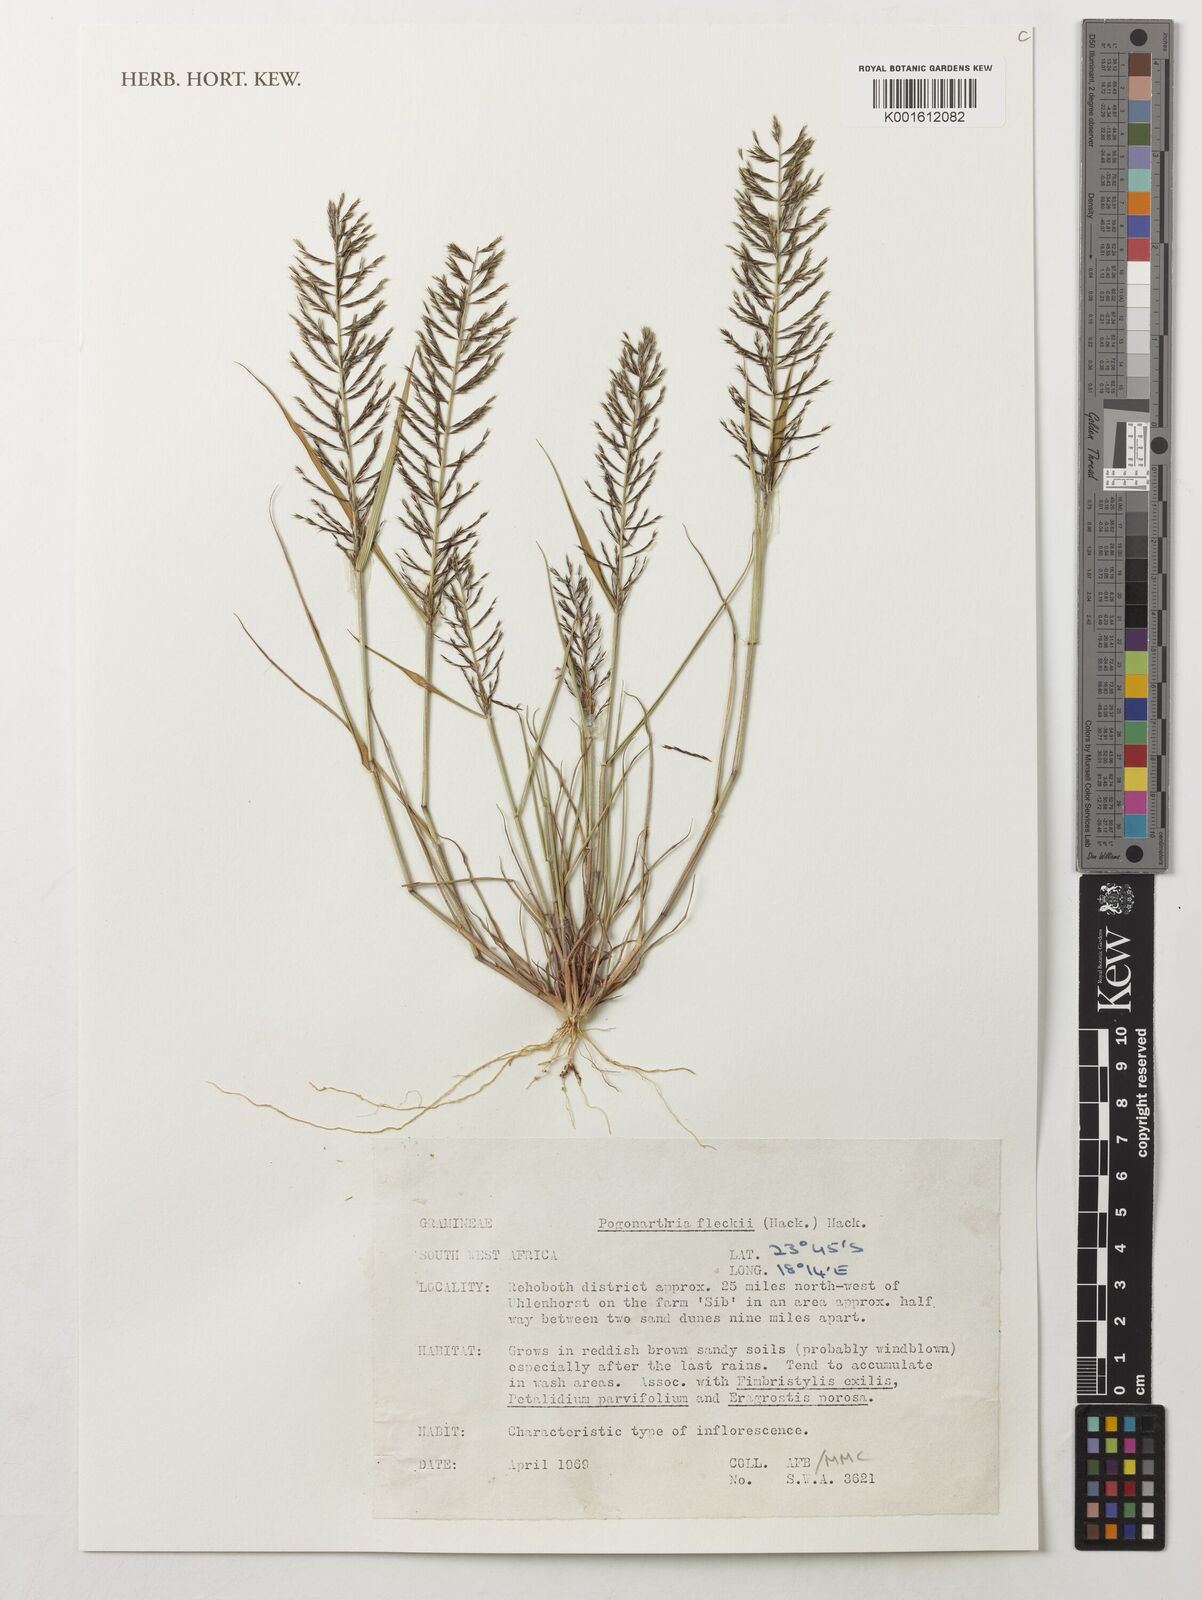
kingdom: Plantae
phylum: Tracheophyta
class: Liliopsida
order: Poales
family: Poaceae
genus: Pogonarthria
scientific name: Pogonarthria fleckii
